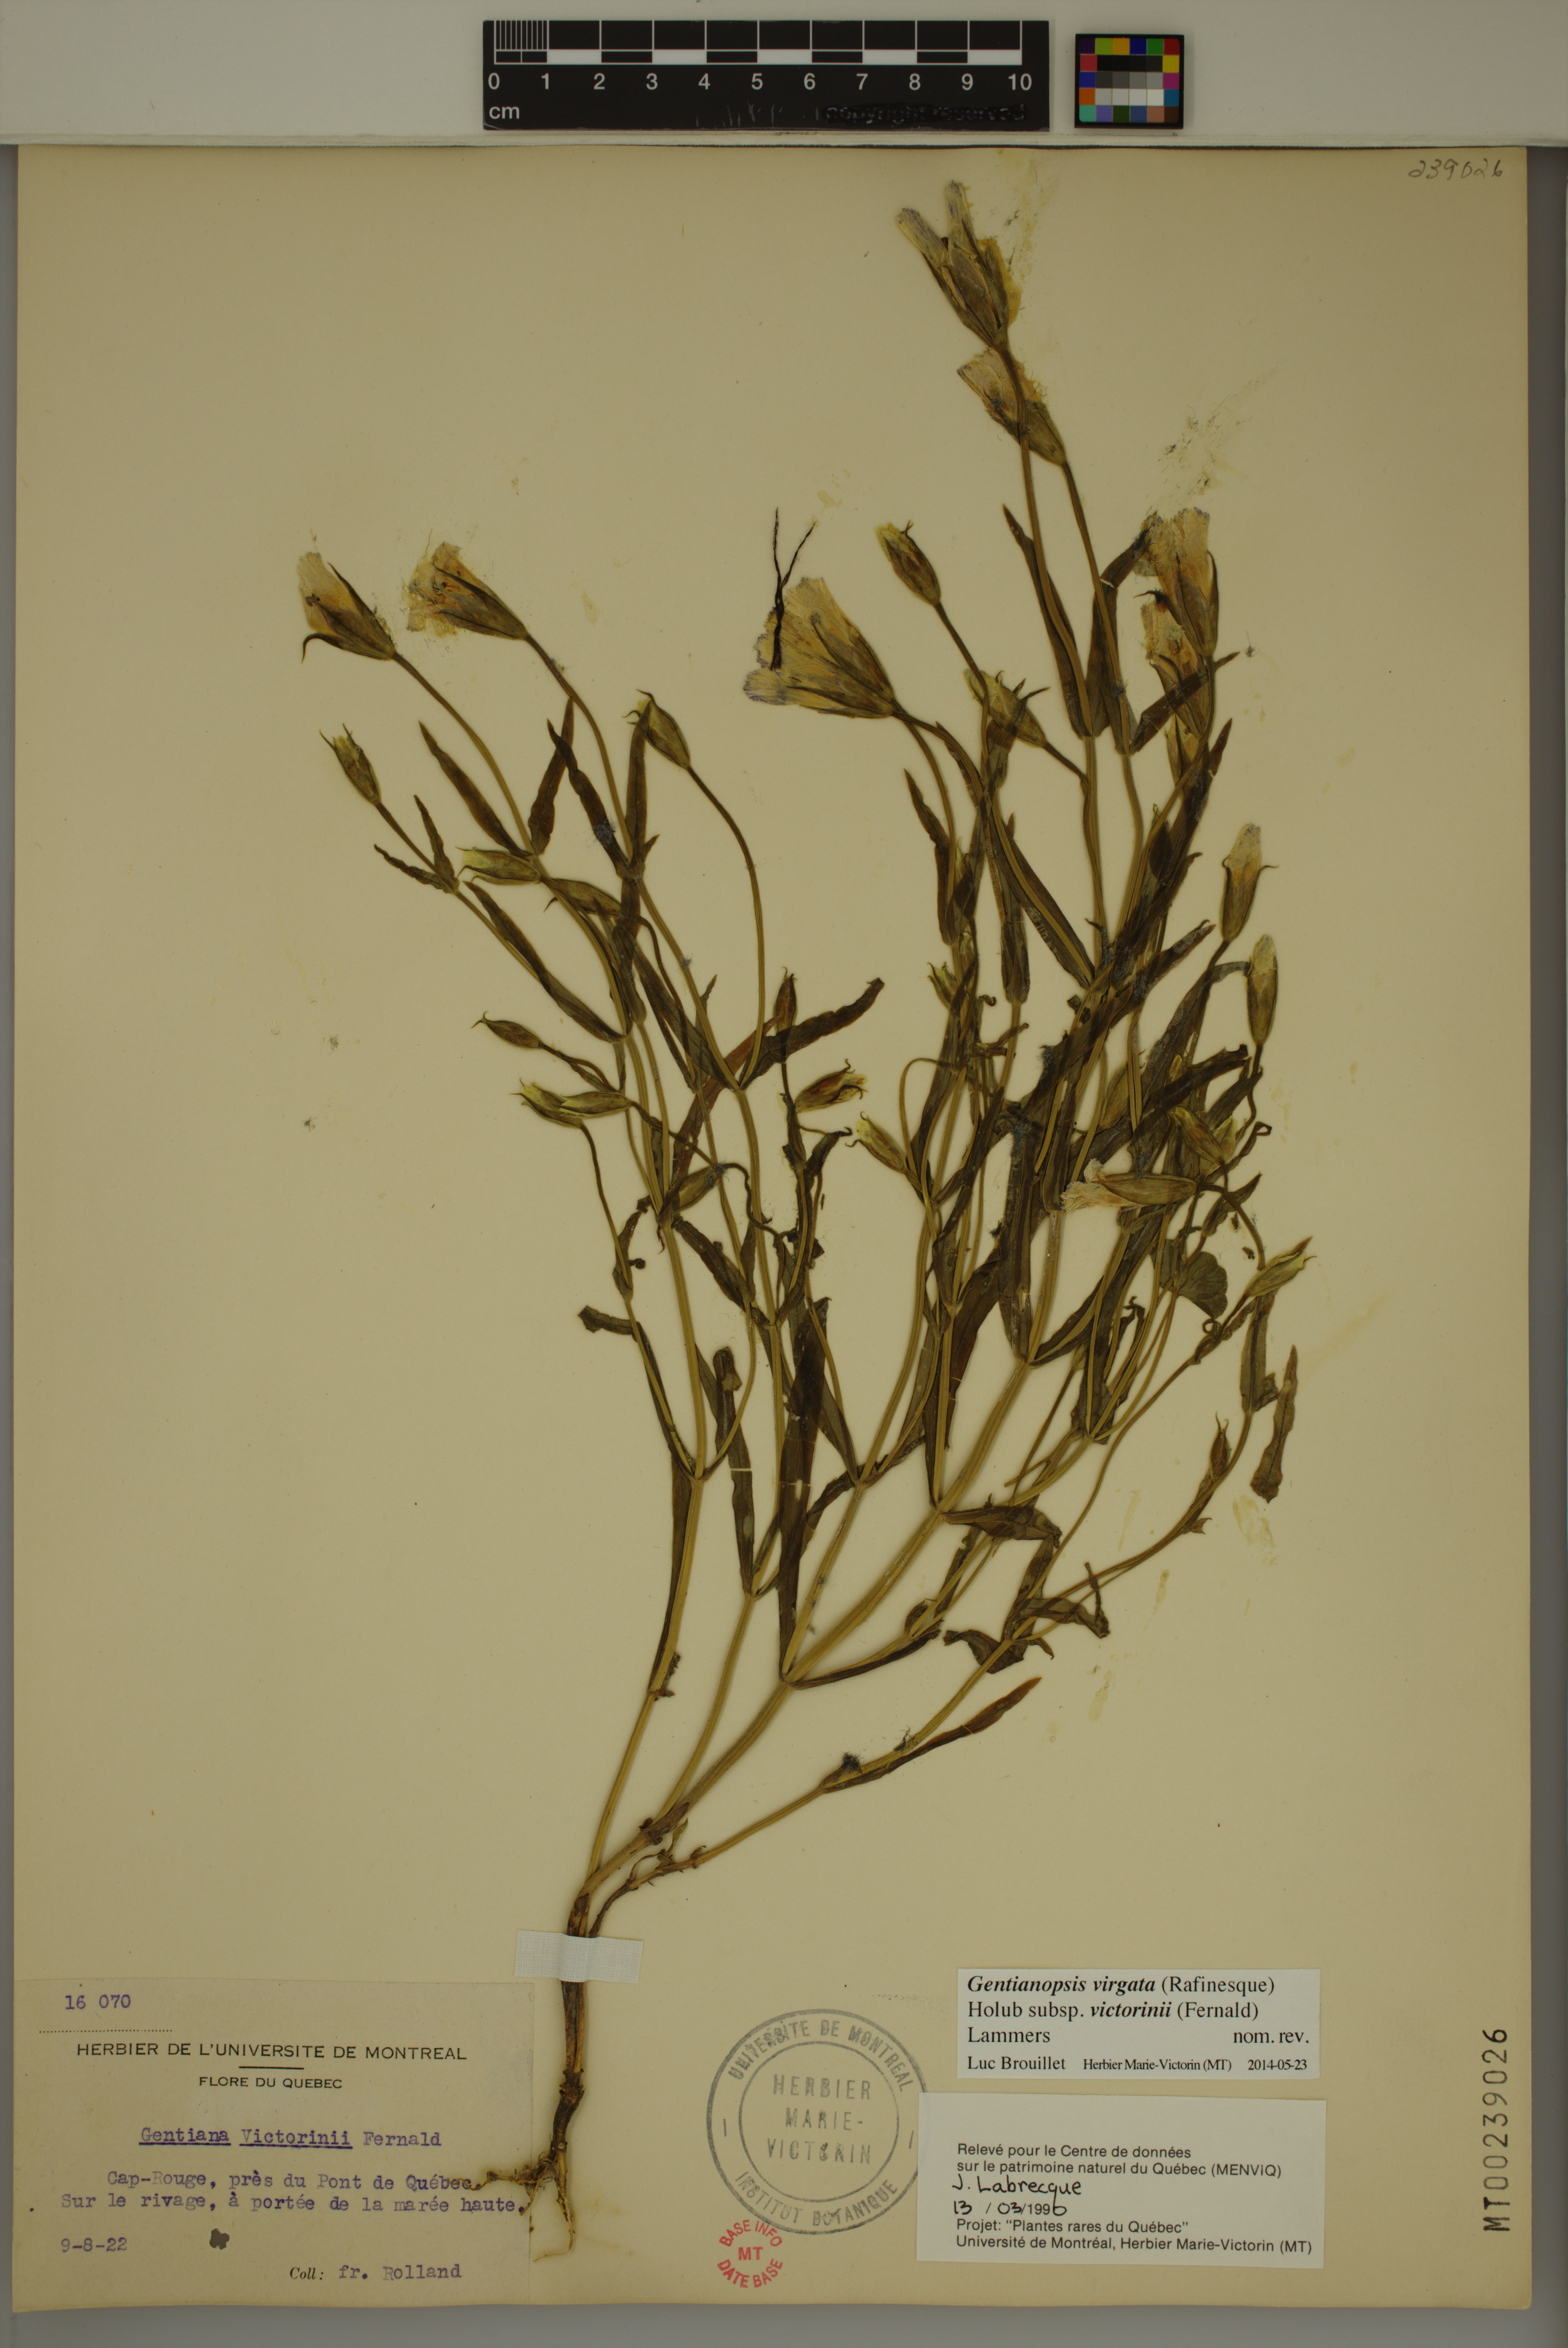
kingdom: Plantae
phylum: Tracheophyta
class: Magnoliopsida
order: Gentianales
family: Gentianaceae
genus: Gentianopsis
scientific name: Gentianopsis victorinii
